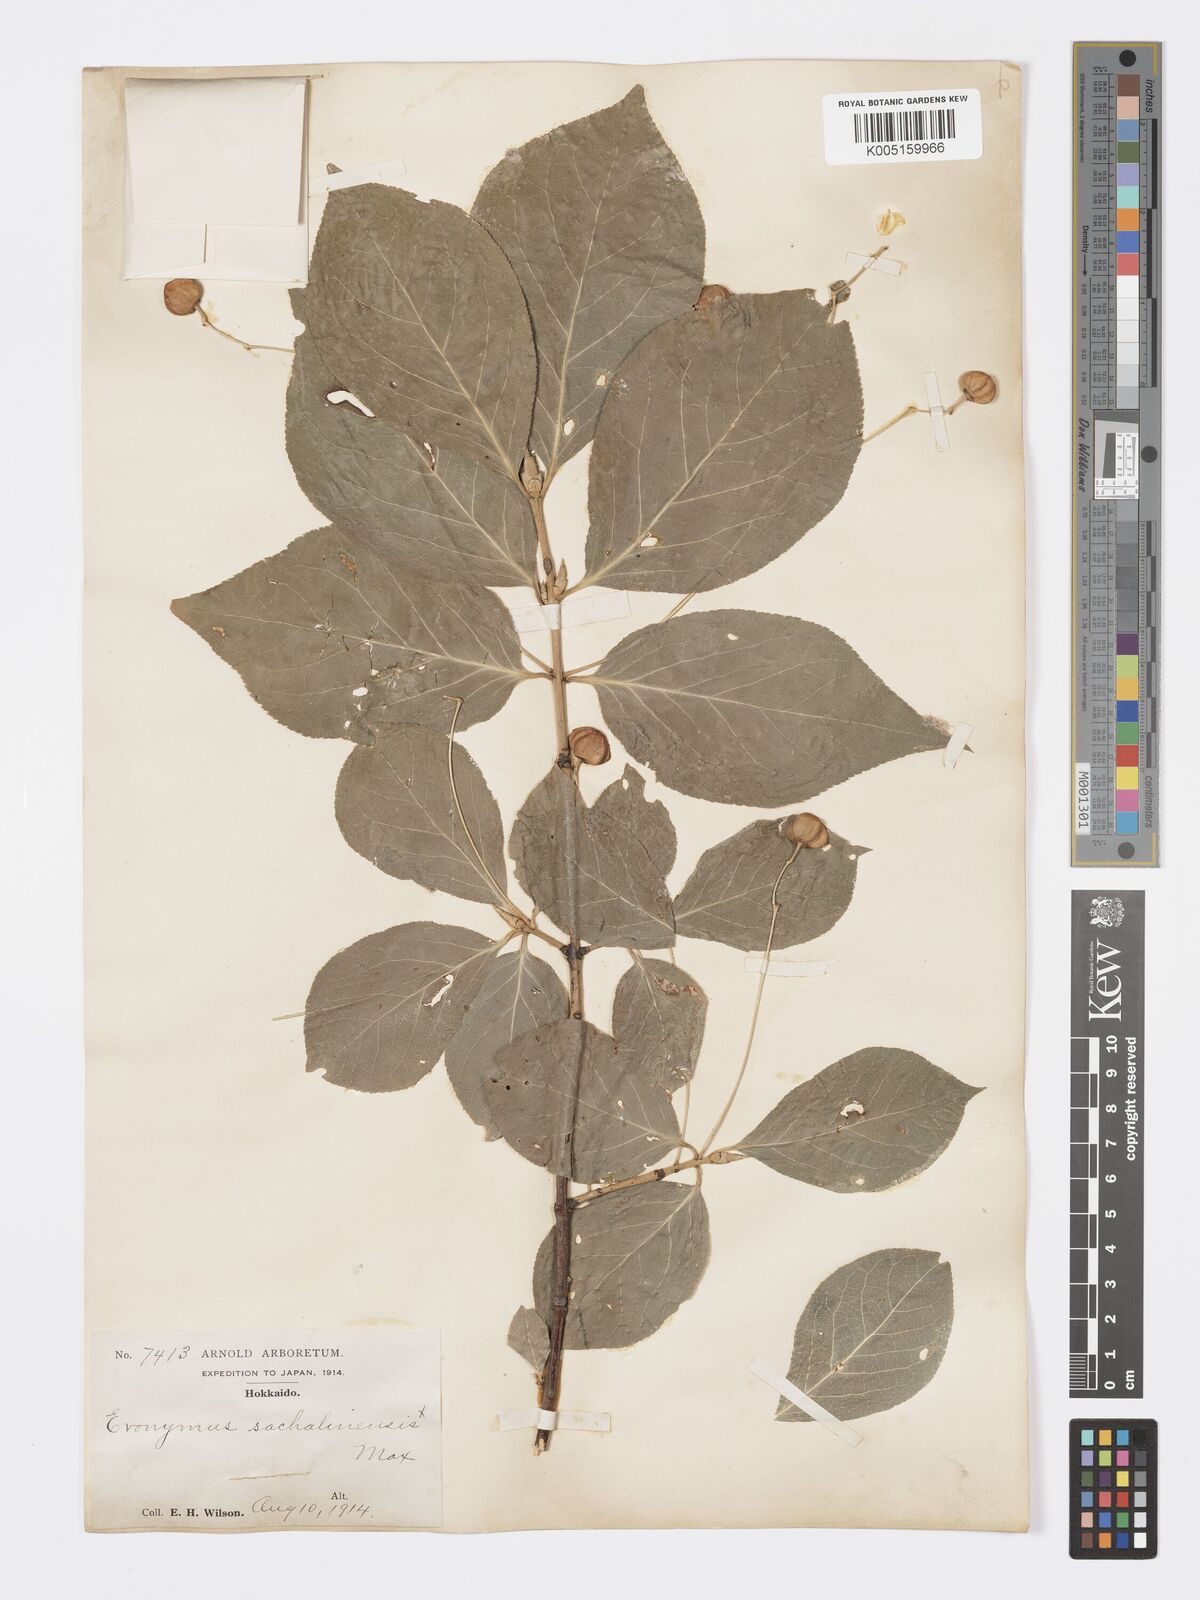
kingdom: Plantae
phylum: Tracheophyta
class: Magnoliopsida
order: Celastrales
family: Celastraceae
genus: Euonymus
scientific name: Euonymus sachalinensis
